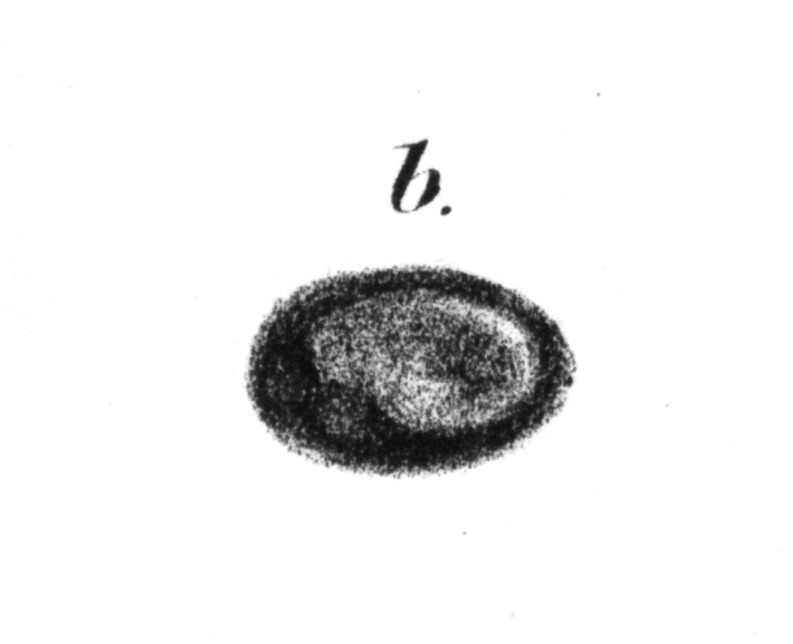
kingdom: Animalia
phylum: Chordata
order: Anguilliformes
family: Phyllodontidae
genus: Phyllodus
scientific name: Phyllodus
